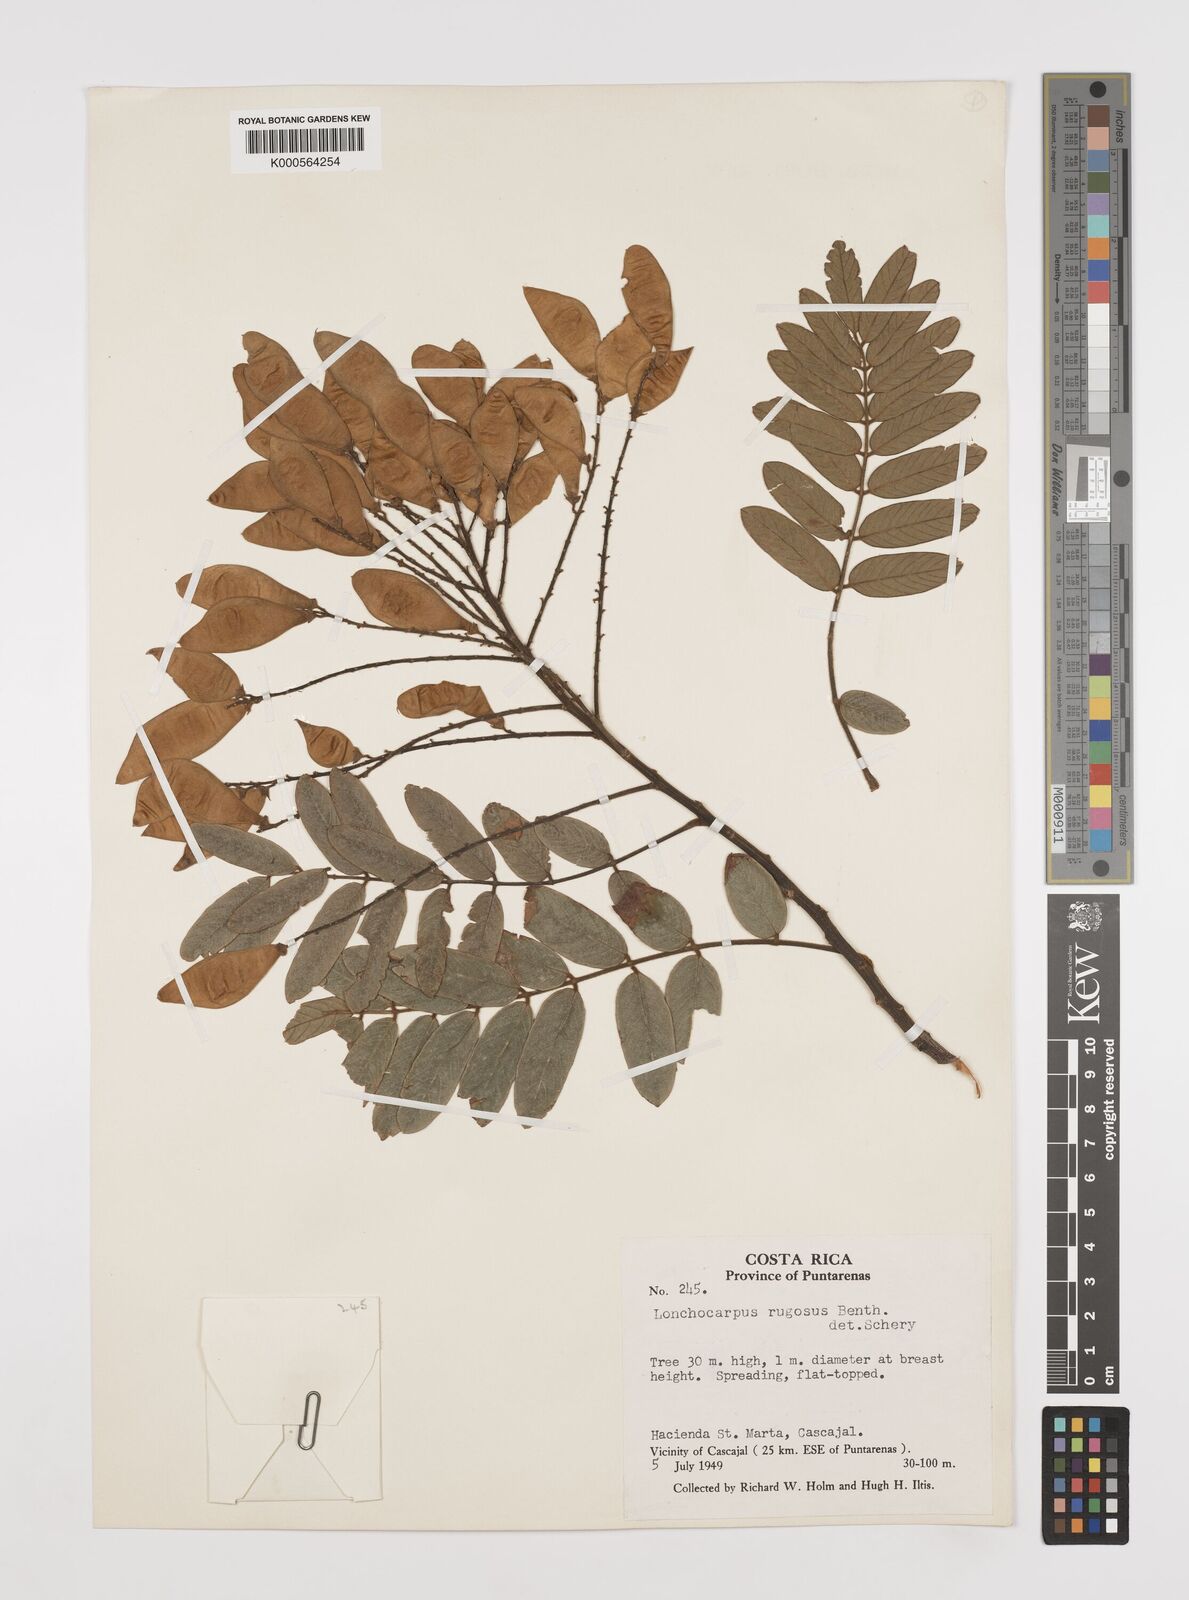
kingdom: Plantae
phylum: Tracheophyta
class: Magnoliopsida
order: Fabales
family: Fabaceae
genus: Lonchocarpus
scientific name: Lonchocarpus rugosus
